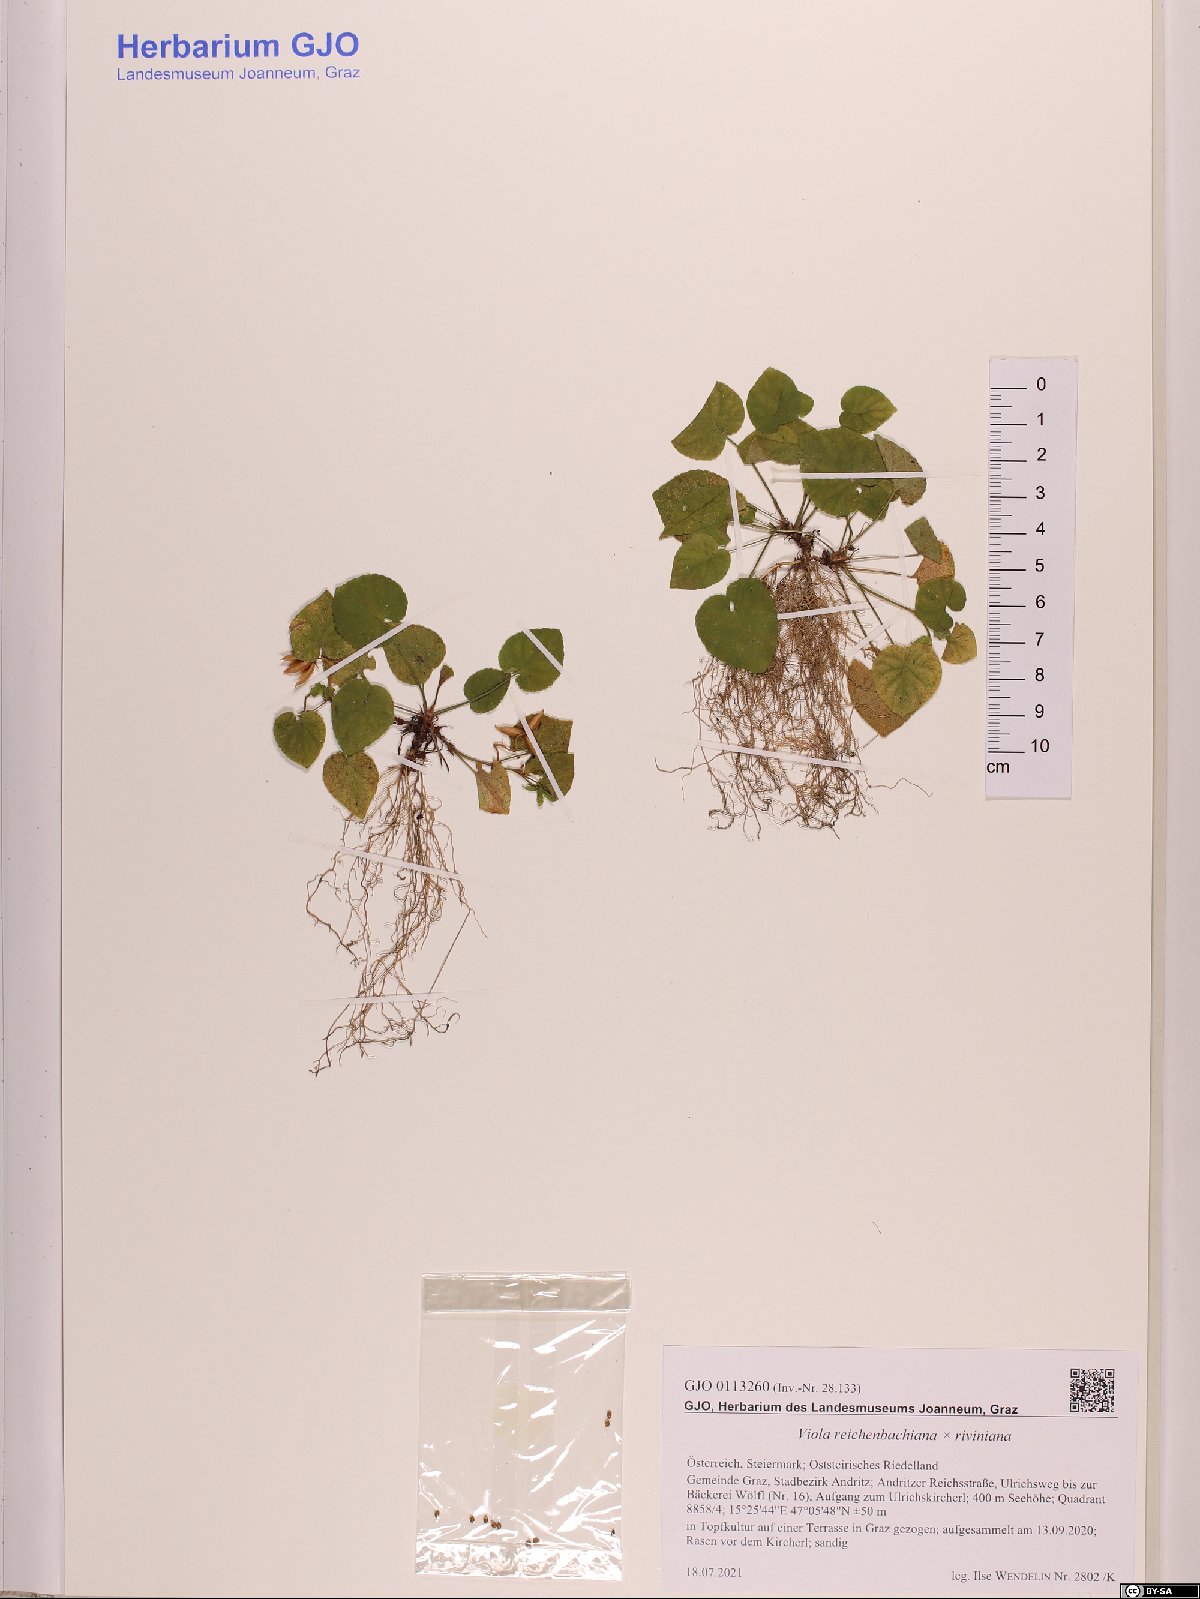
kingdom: Plantae
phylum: Tracheophyta
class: Magnoliopsida
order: Malpighiales
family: Violaceae
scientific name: Violaceae
